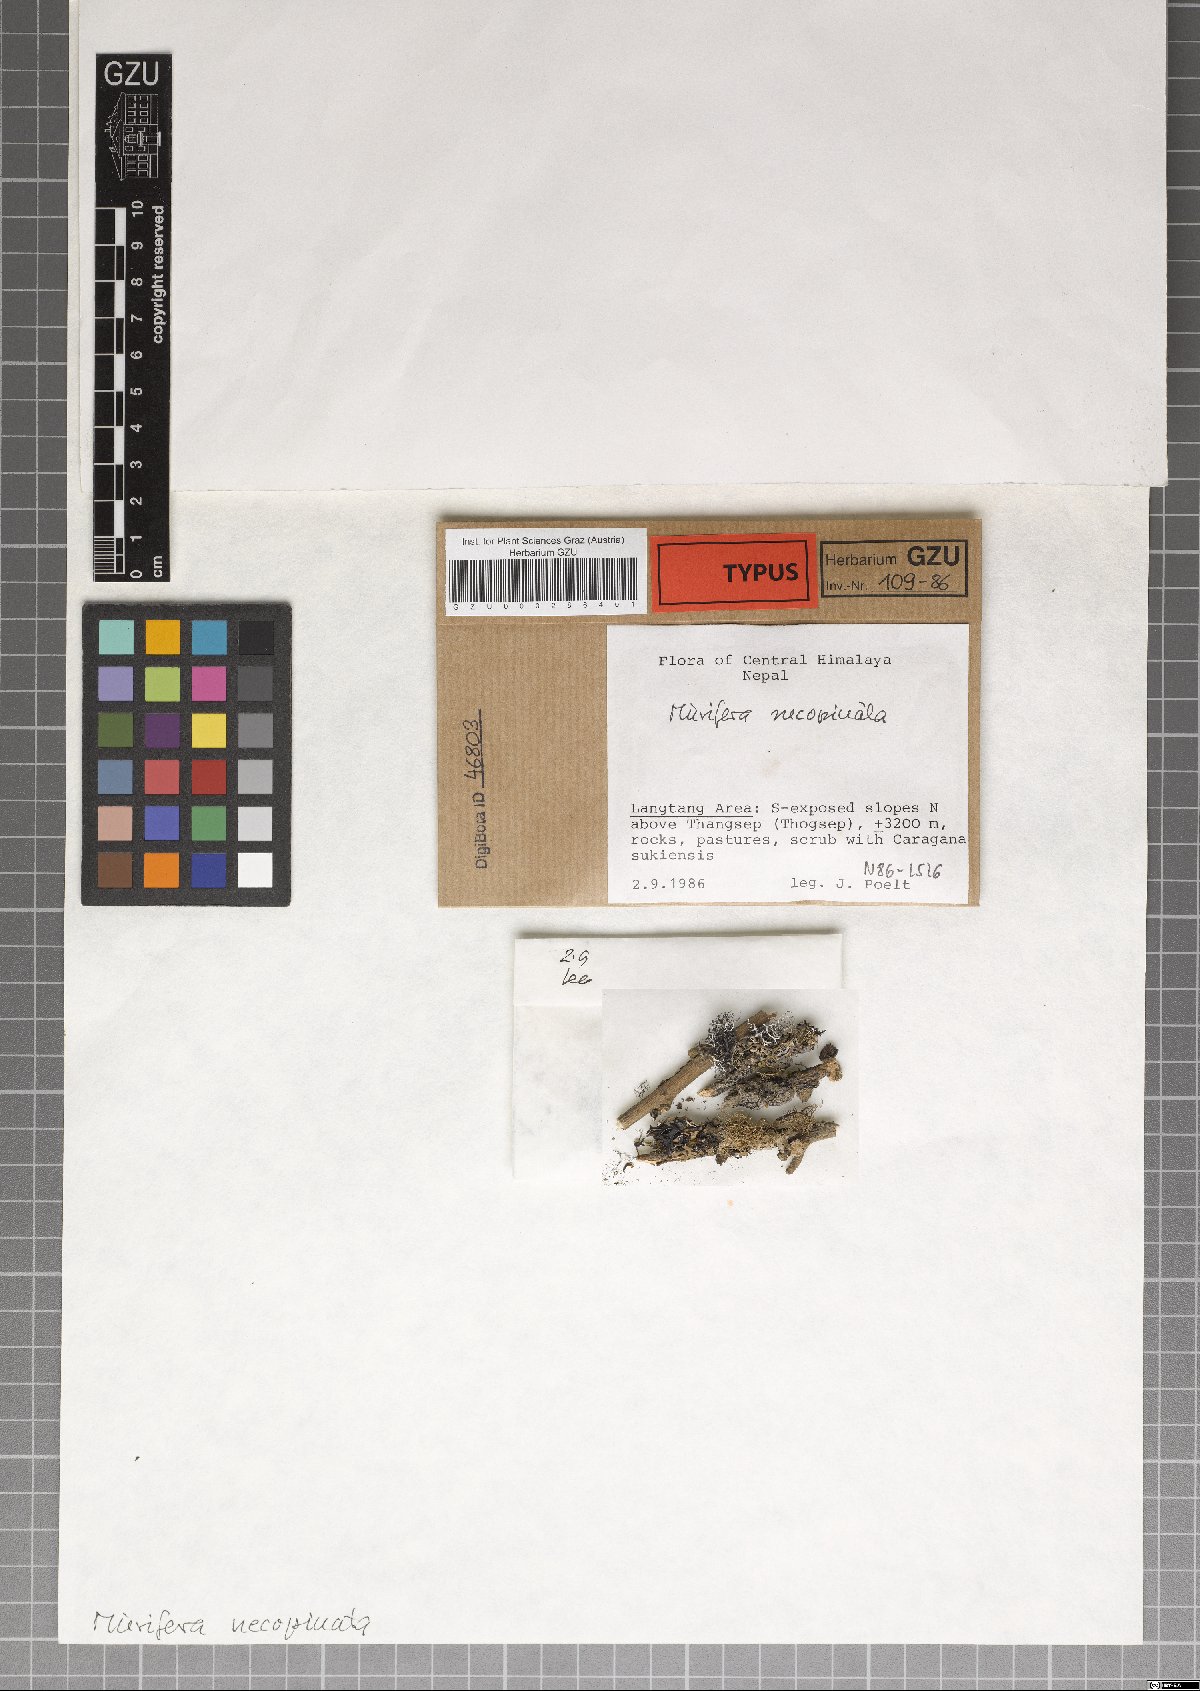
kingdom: Fungi
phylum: Ascomycota
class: Lecanoromycetes
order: Lecideales
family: Lecideaceae
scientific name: Lecideaceae
